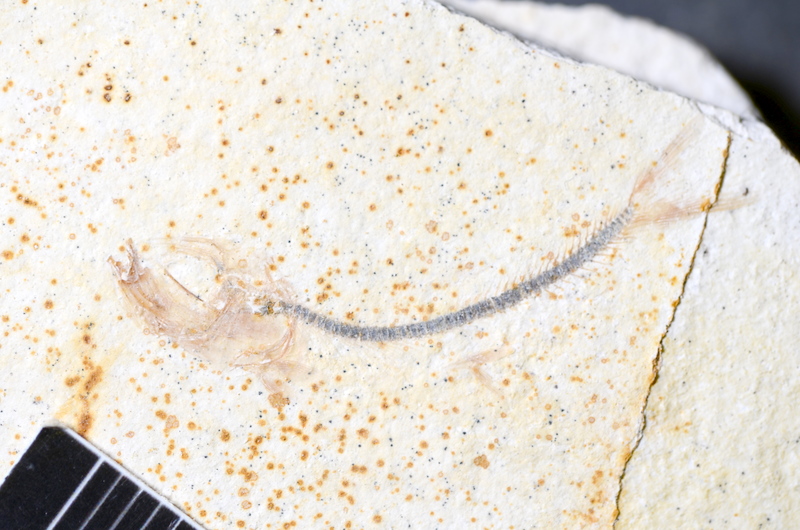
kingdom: Animalia
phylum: Chordata
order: Salmoniformes
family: Orthogonikleithridae
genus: Orthogonikleithrus
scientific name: Orthogonikleithrus hoelli
